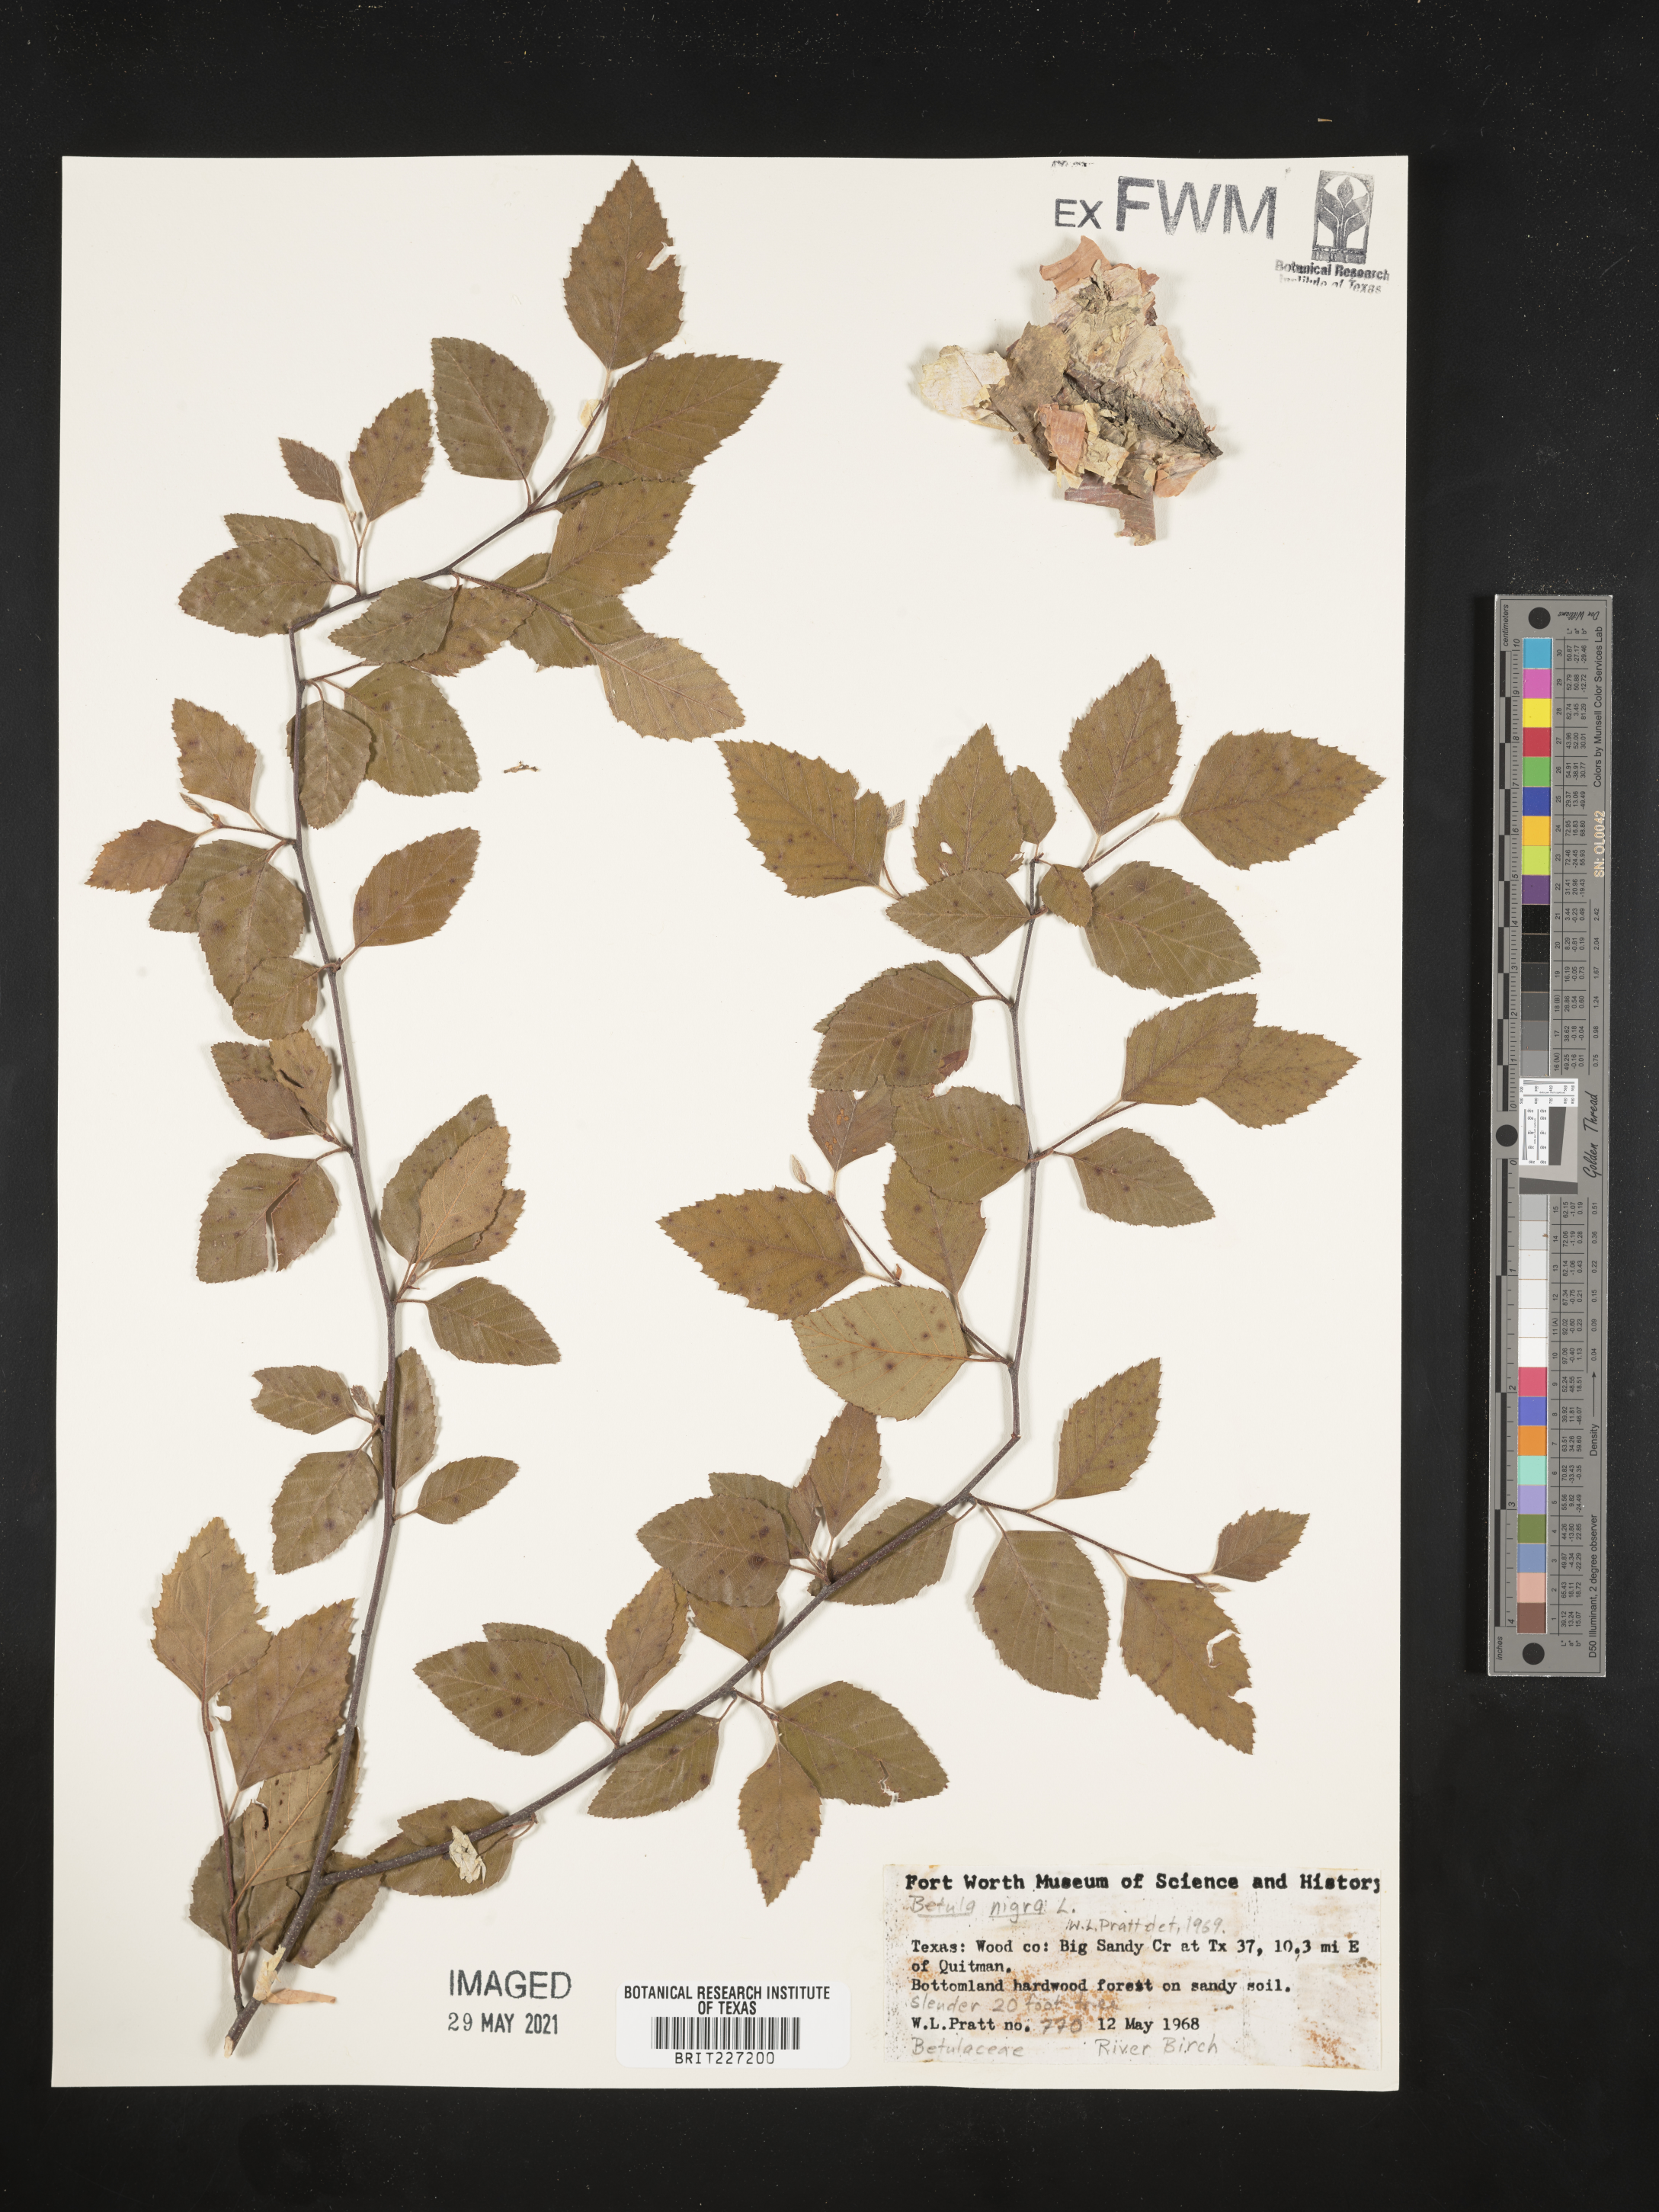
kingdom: Plantae
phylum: Tracheophyta
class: Magnoliopsida
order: Fagales
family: Betulaceae
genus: Betula
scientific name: Betula nigra
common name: Black birch
